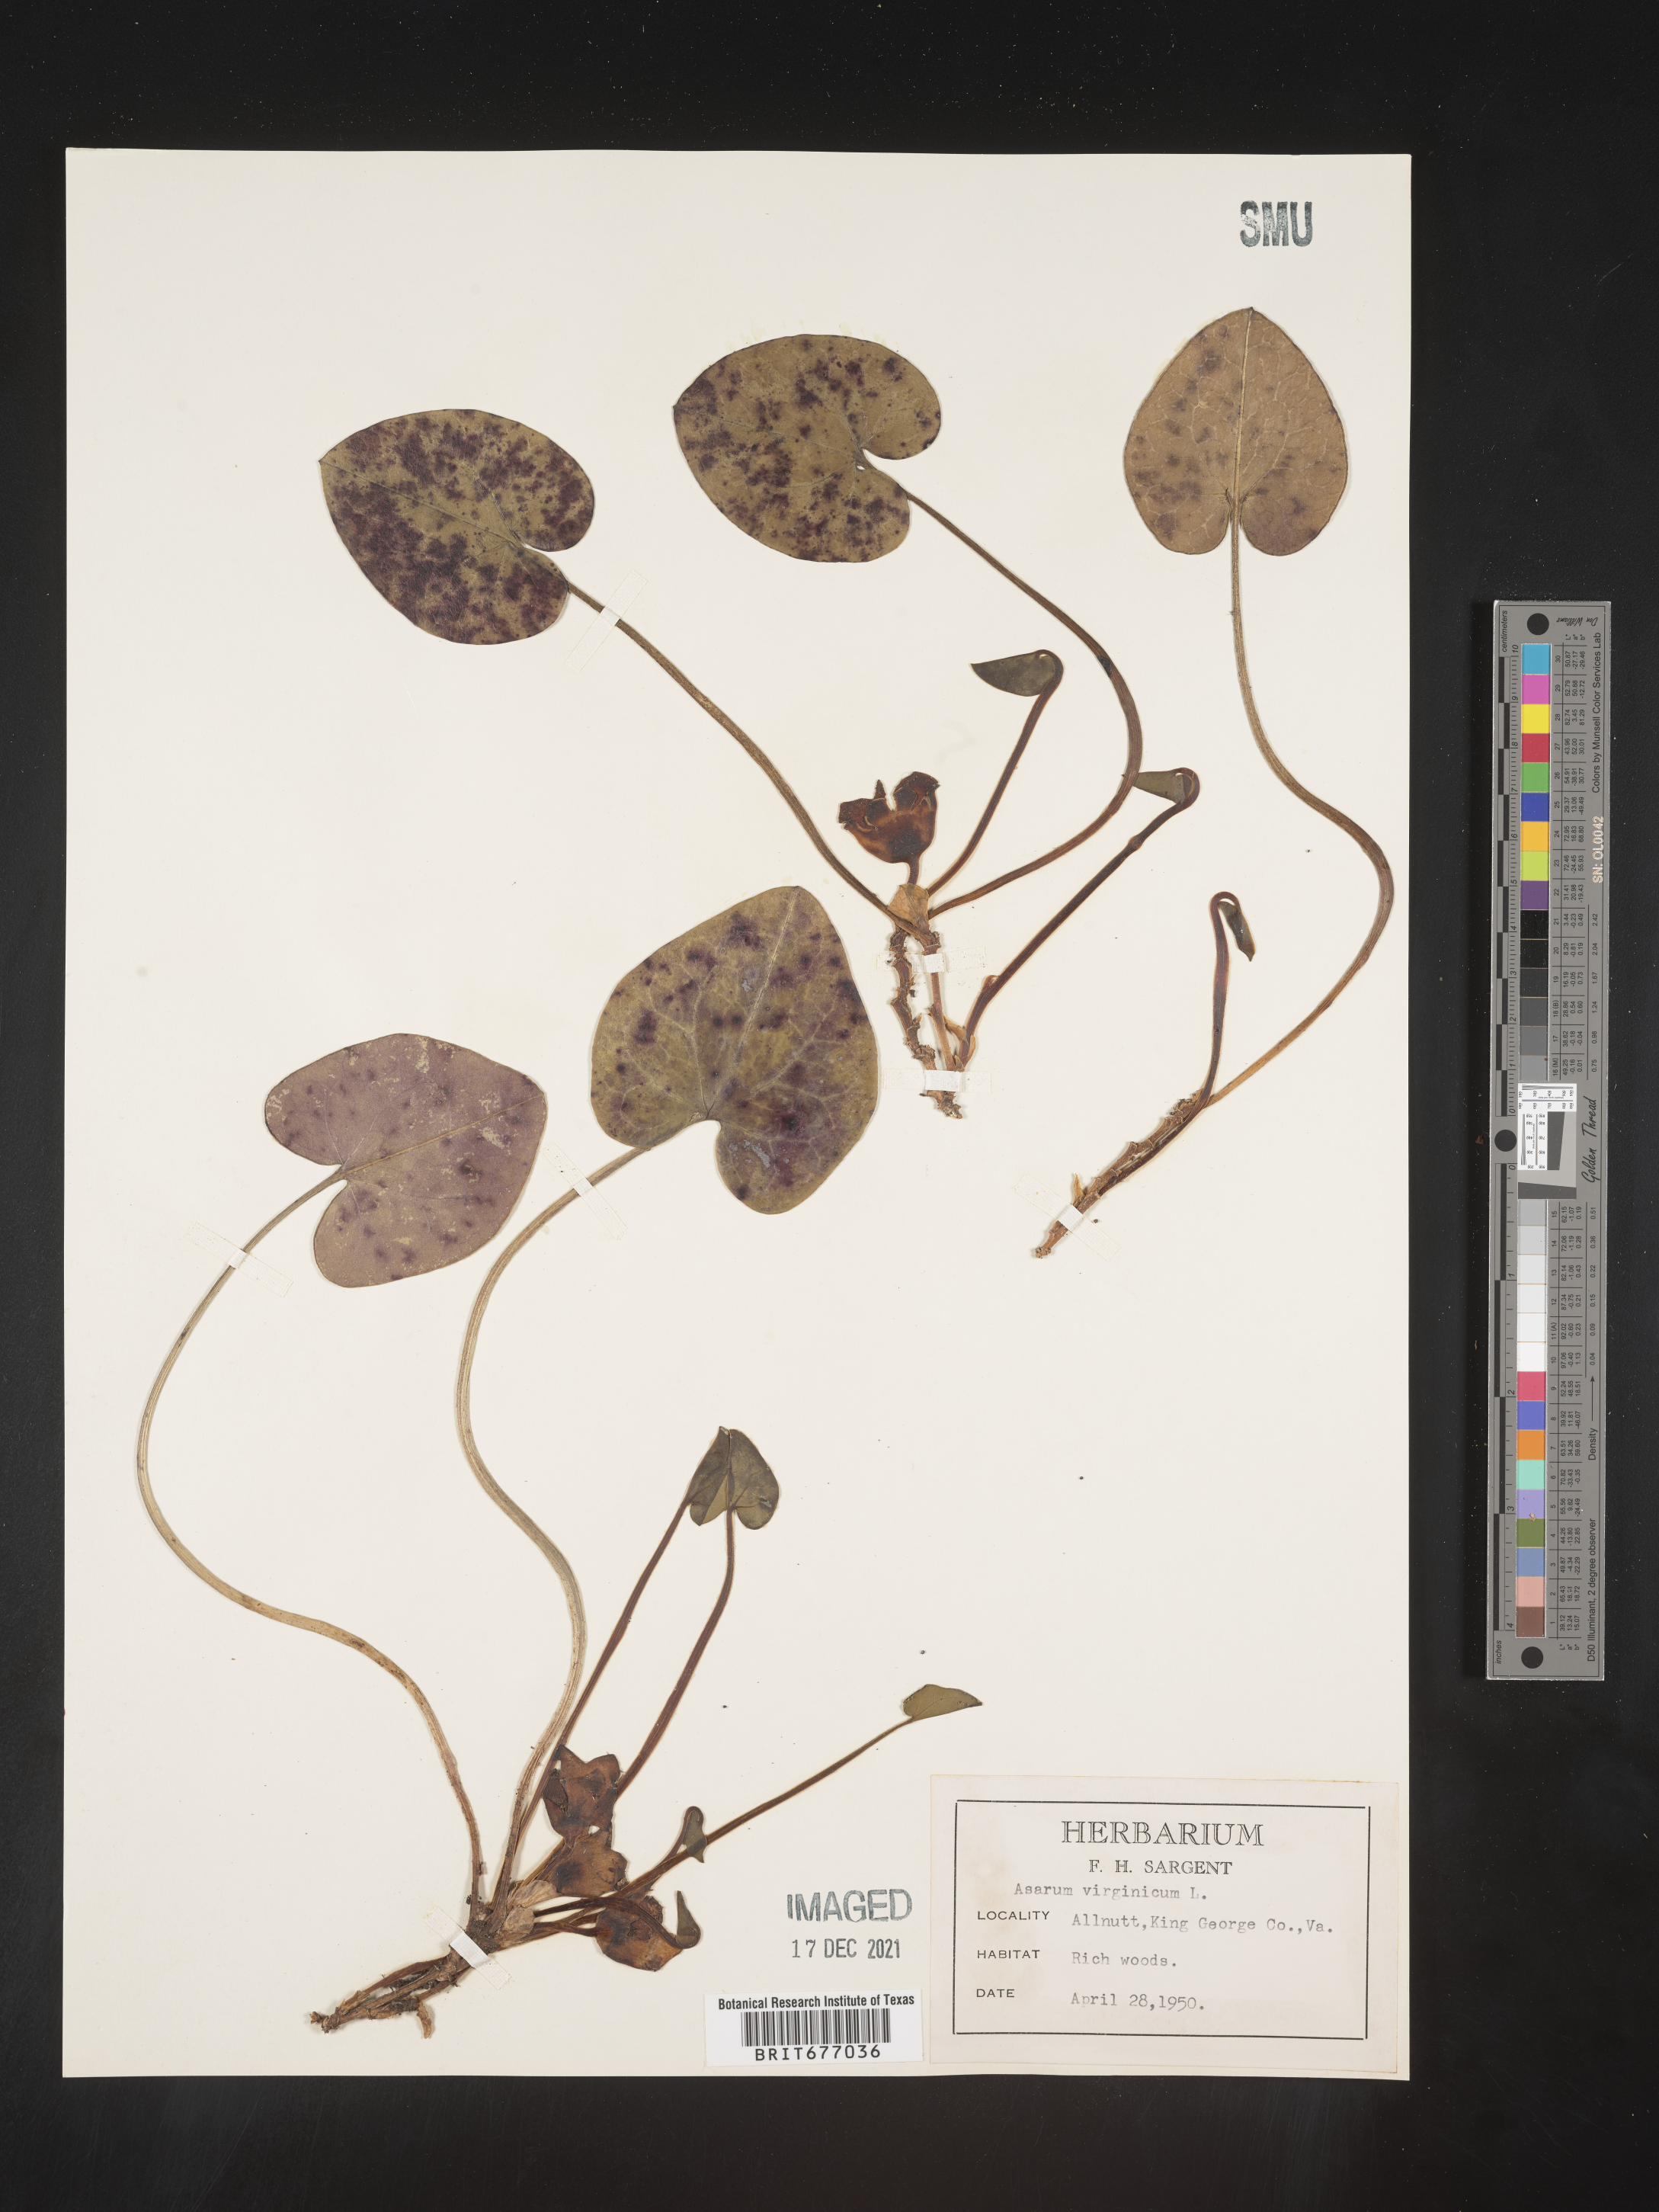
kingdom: Plantae
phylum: Tracheophyta
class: Magnoliopsida
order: Piperales
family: Aristolochiaceae
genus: Asarum
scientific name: Asarum
